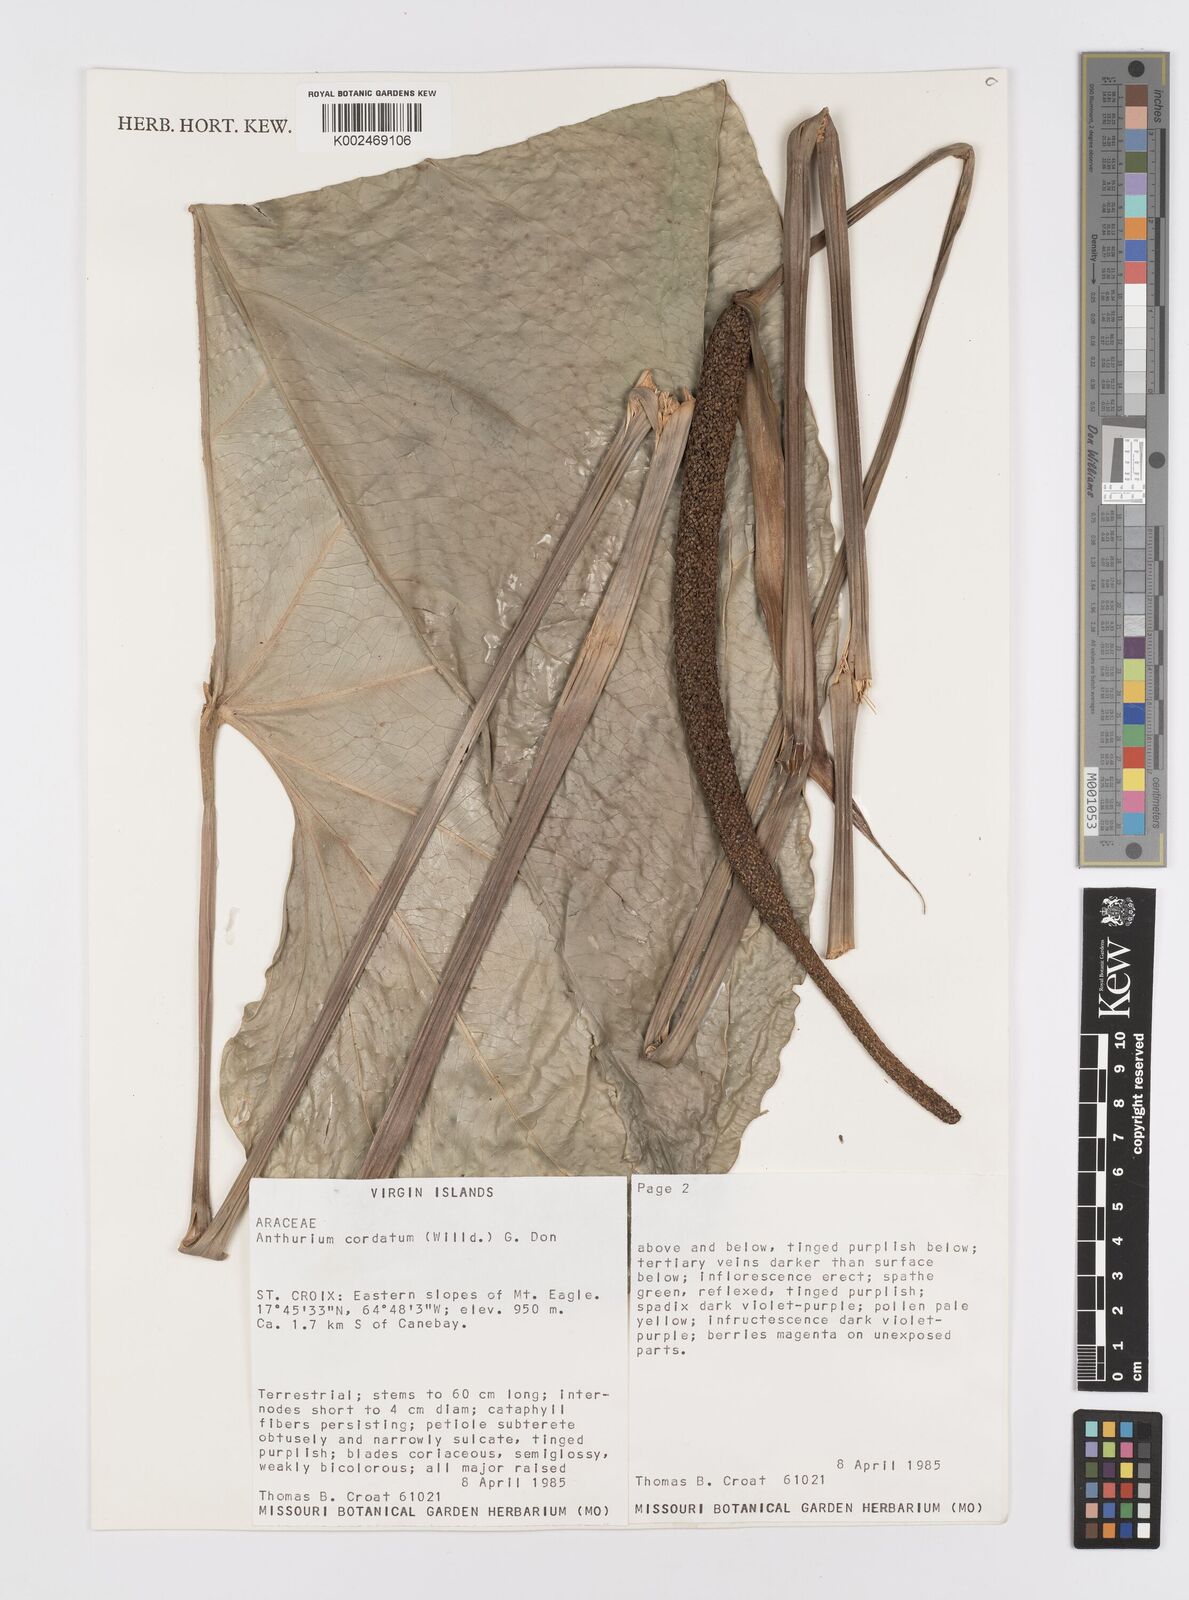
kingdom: Plantae
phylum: Tracheophyta
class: Liliopsida
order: Alismatales
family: Araceae
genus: Anthurium
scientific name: Anthurium cordatum
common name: Monkey tail
